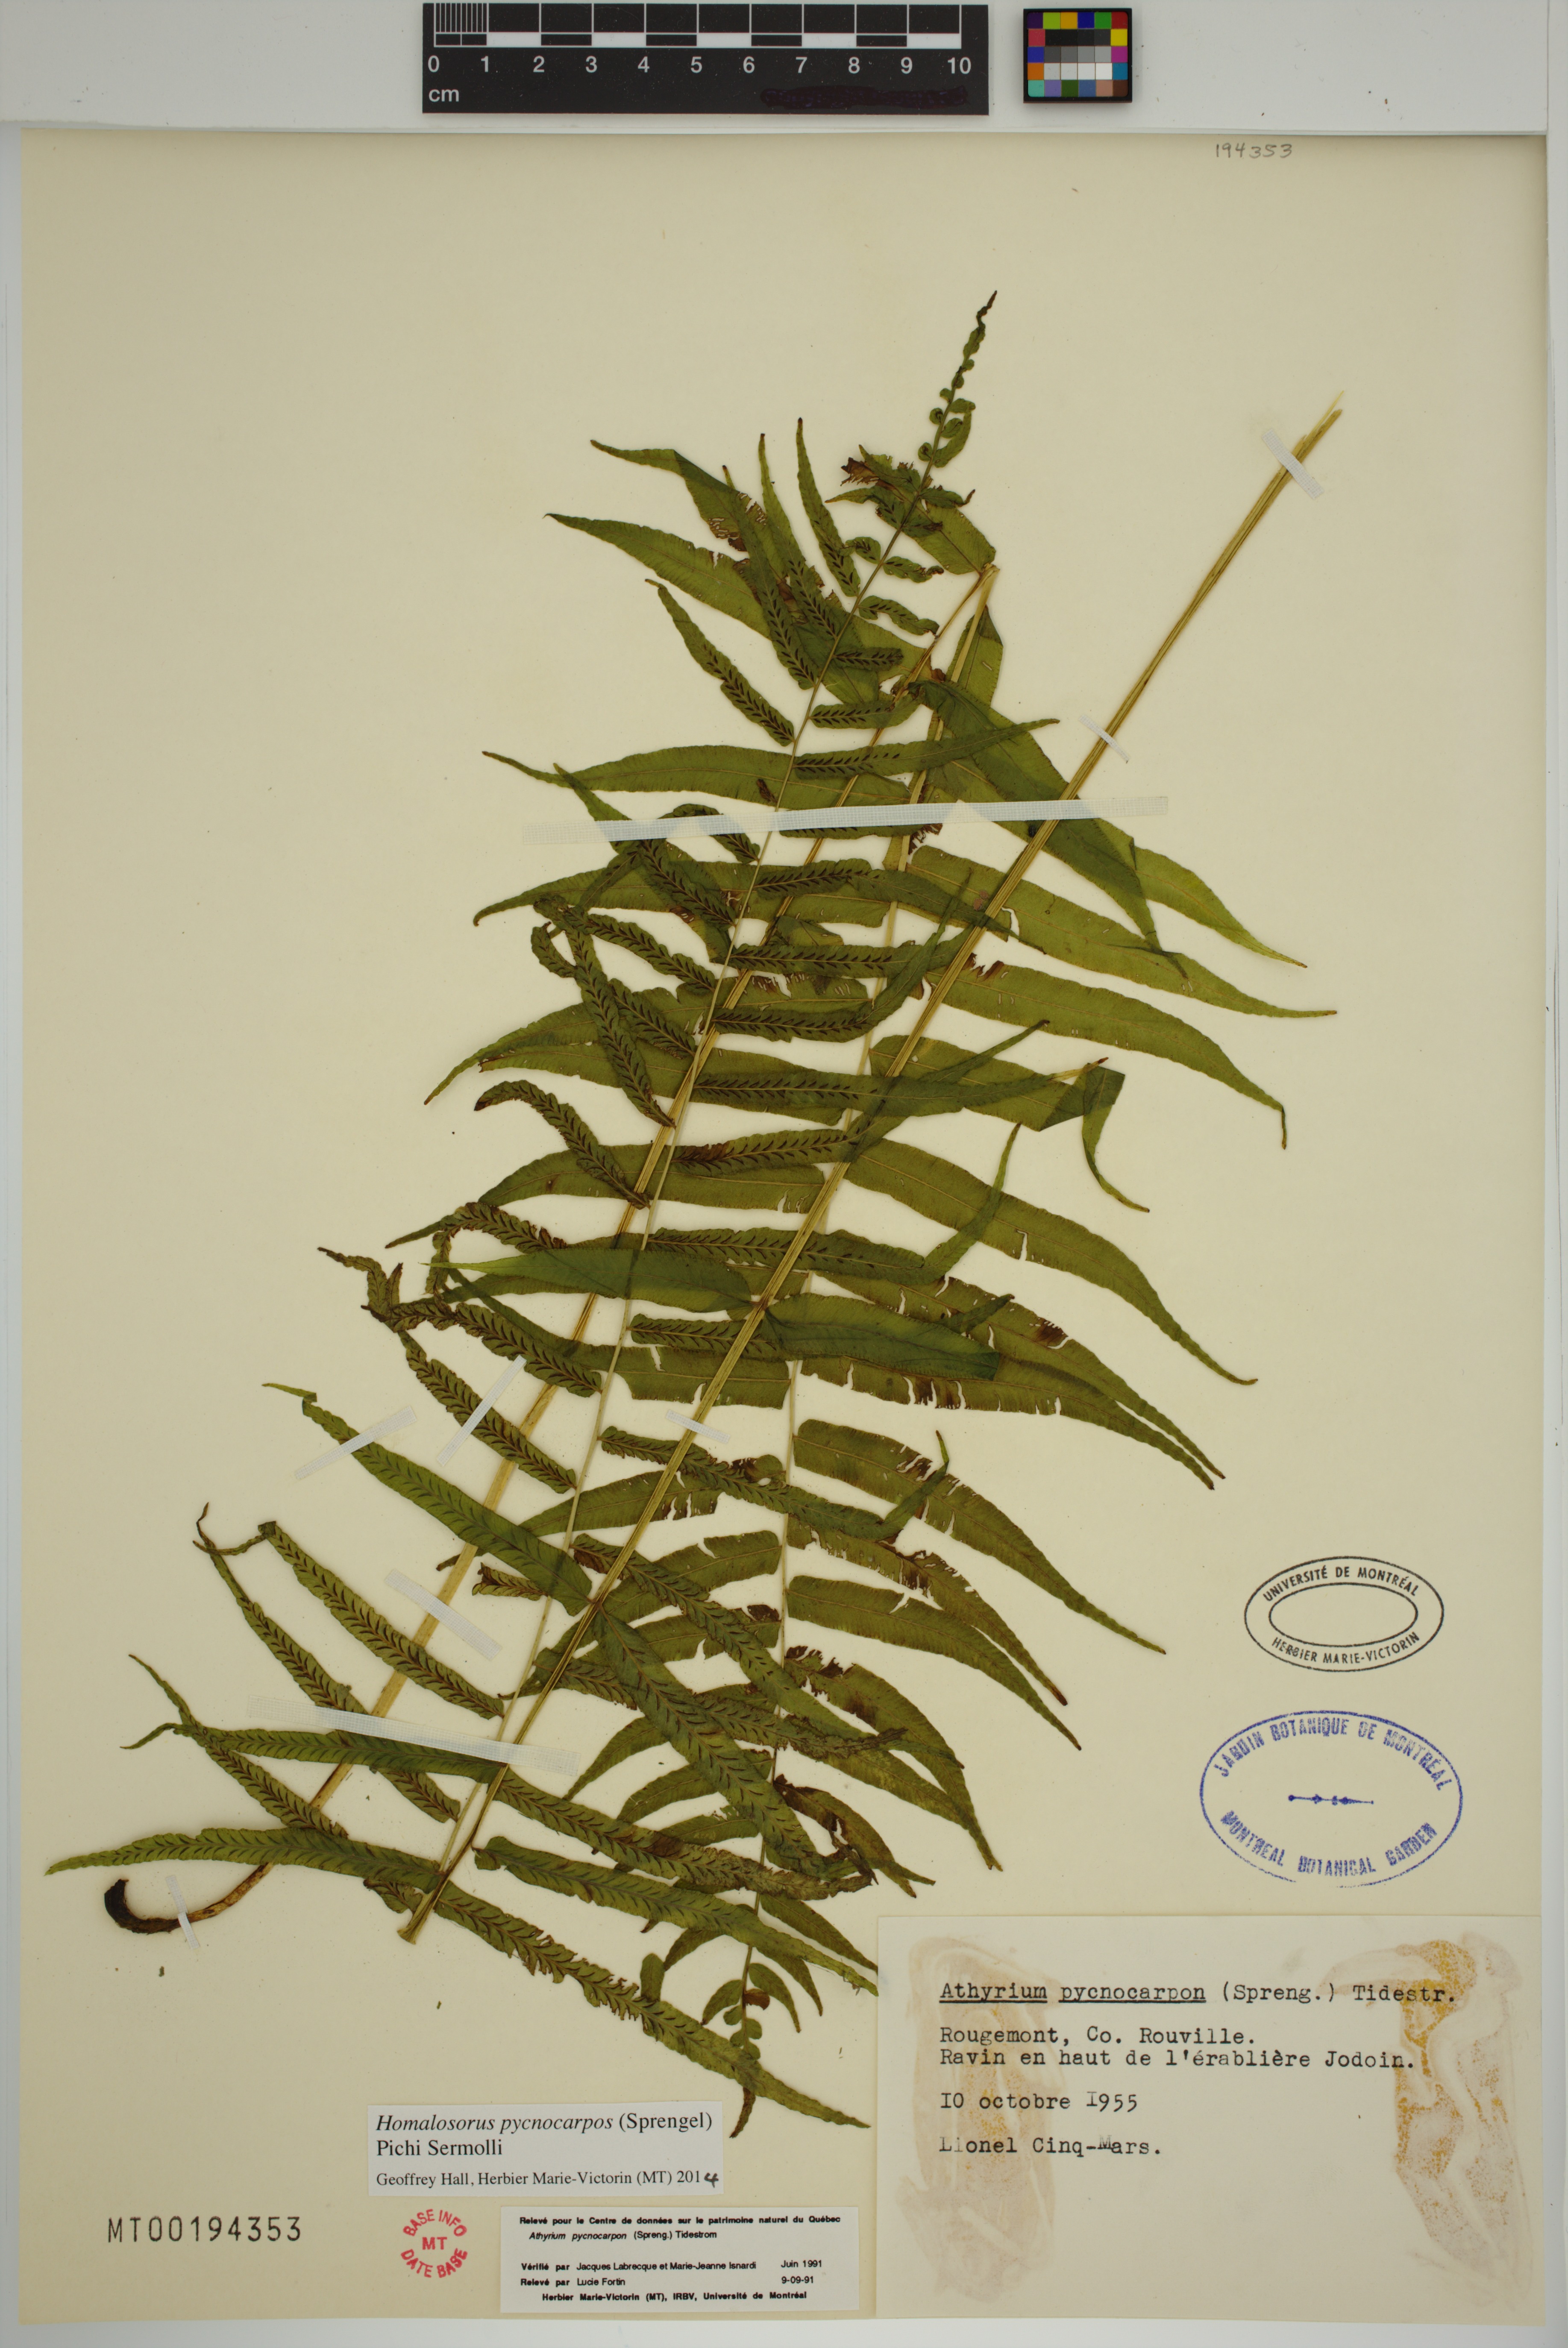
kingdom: Plantae
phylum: Tracheophyta
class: Polypodiopsida
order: Polypodiales
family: Diplaziopsidaceae
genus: Homalosorus
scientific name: Homalosorus pycnocarpos
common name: Glade fern
